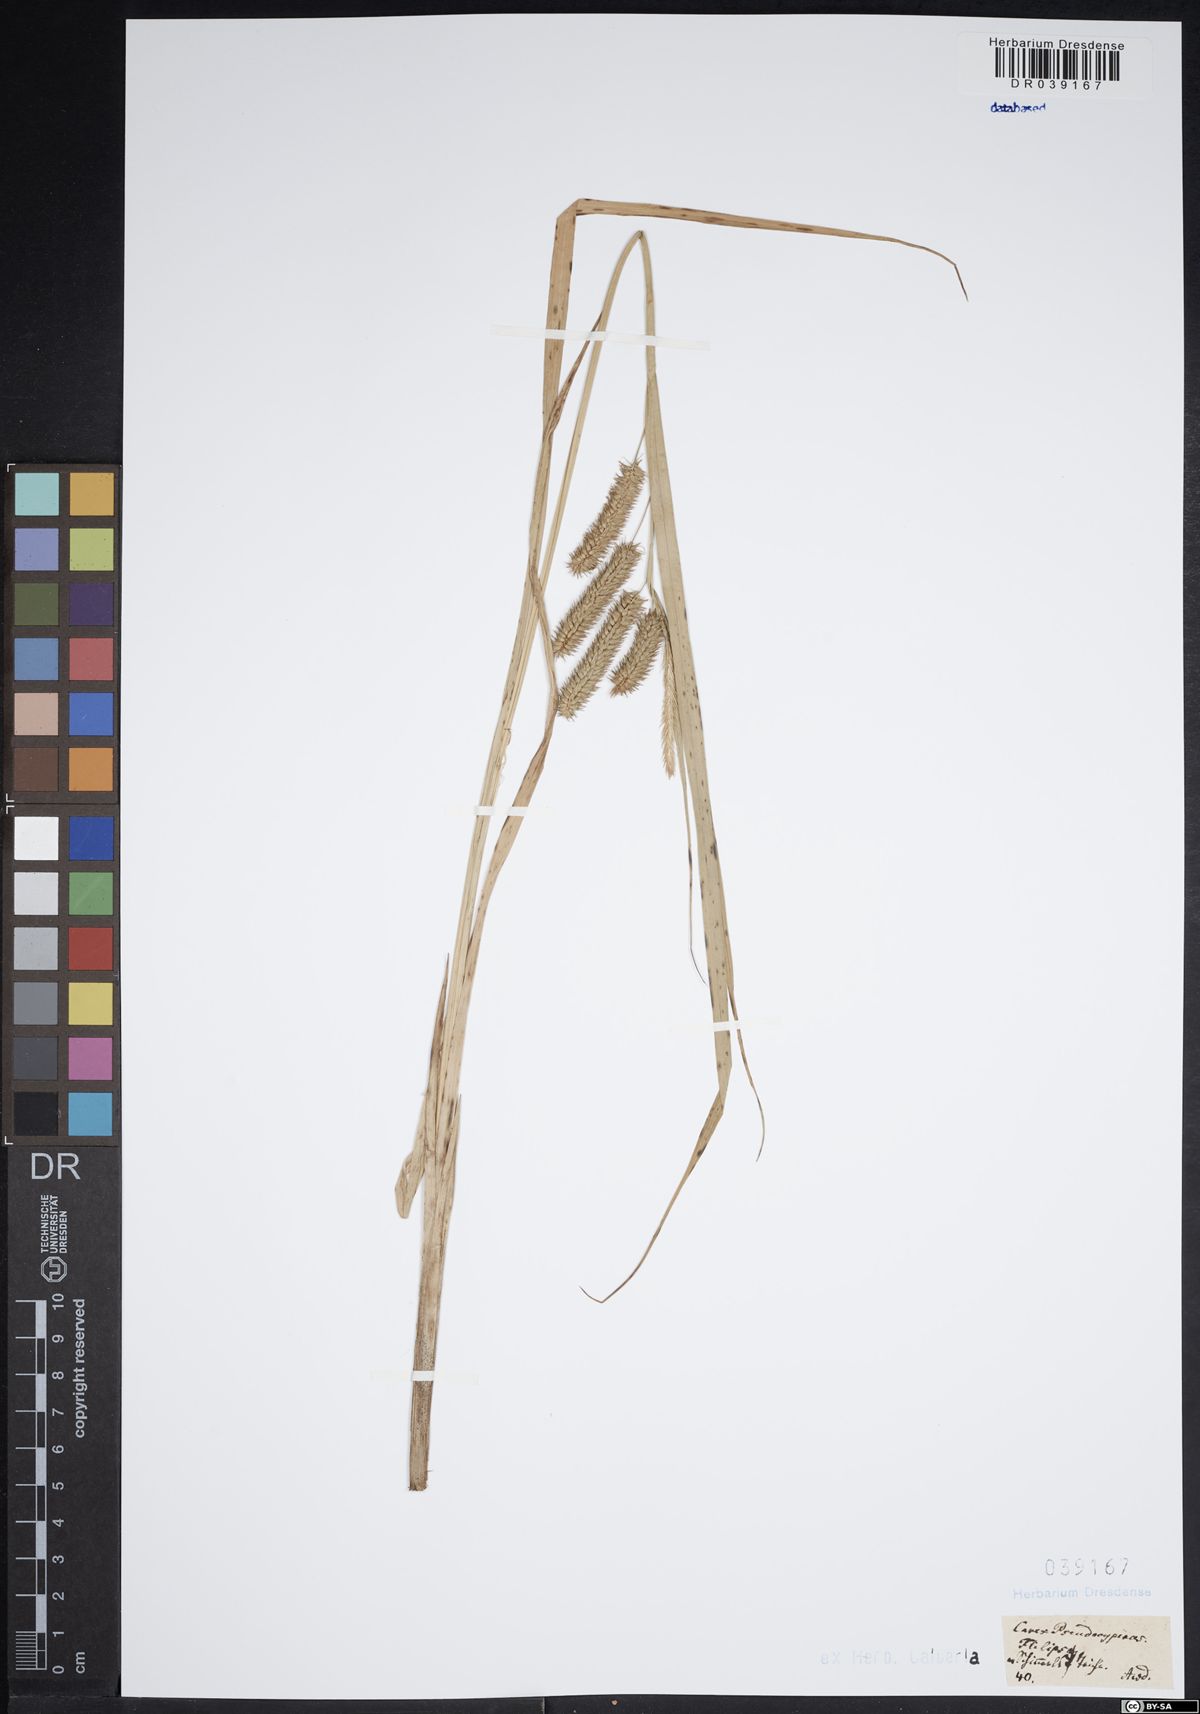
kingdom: Plantae
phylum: Tracheophyta
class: Liliopsida
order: Poales
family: Cyperaceae
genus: Carex
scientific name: Carex pseudocyperus
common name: Cyperus sedge
